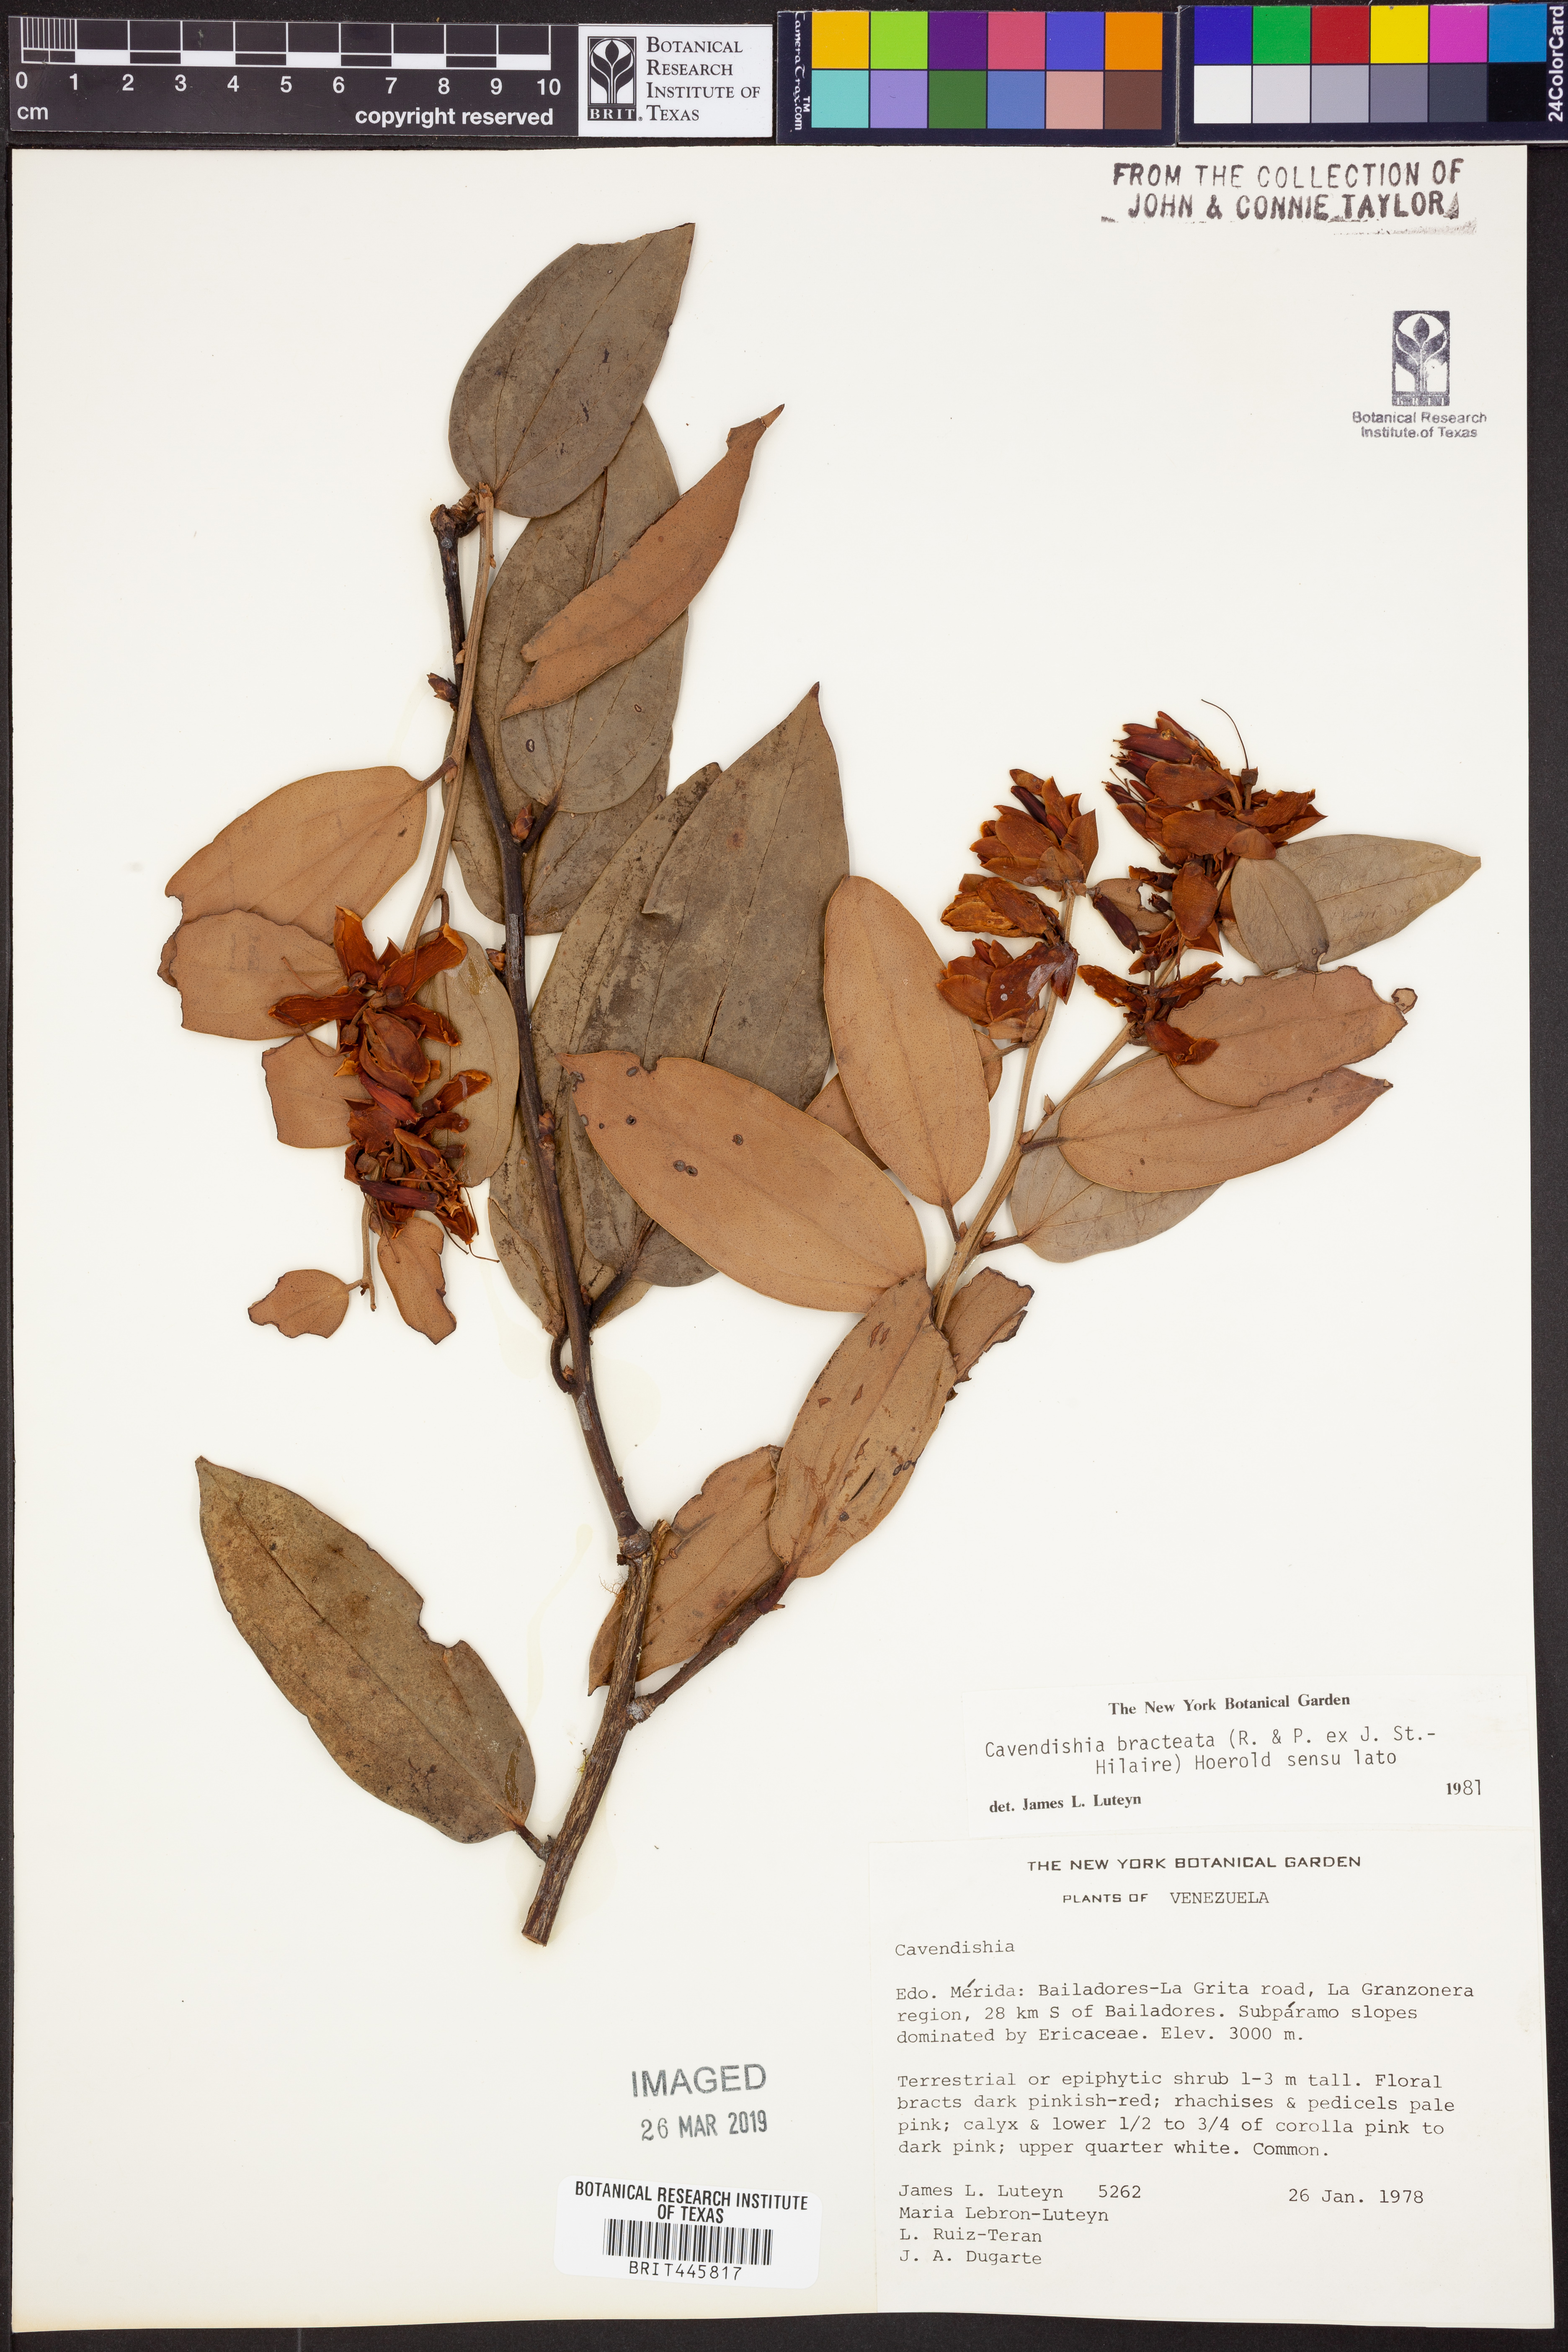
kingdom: Plantae
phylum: Tracheophyta
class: Magnoliopsida
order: Ericales
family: Ericaceae
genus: Cavendishia
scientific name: Cavendishia bracteata
